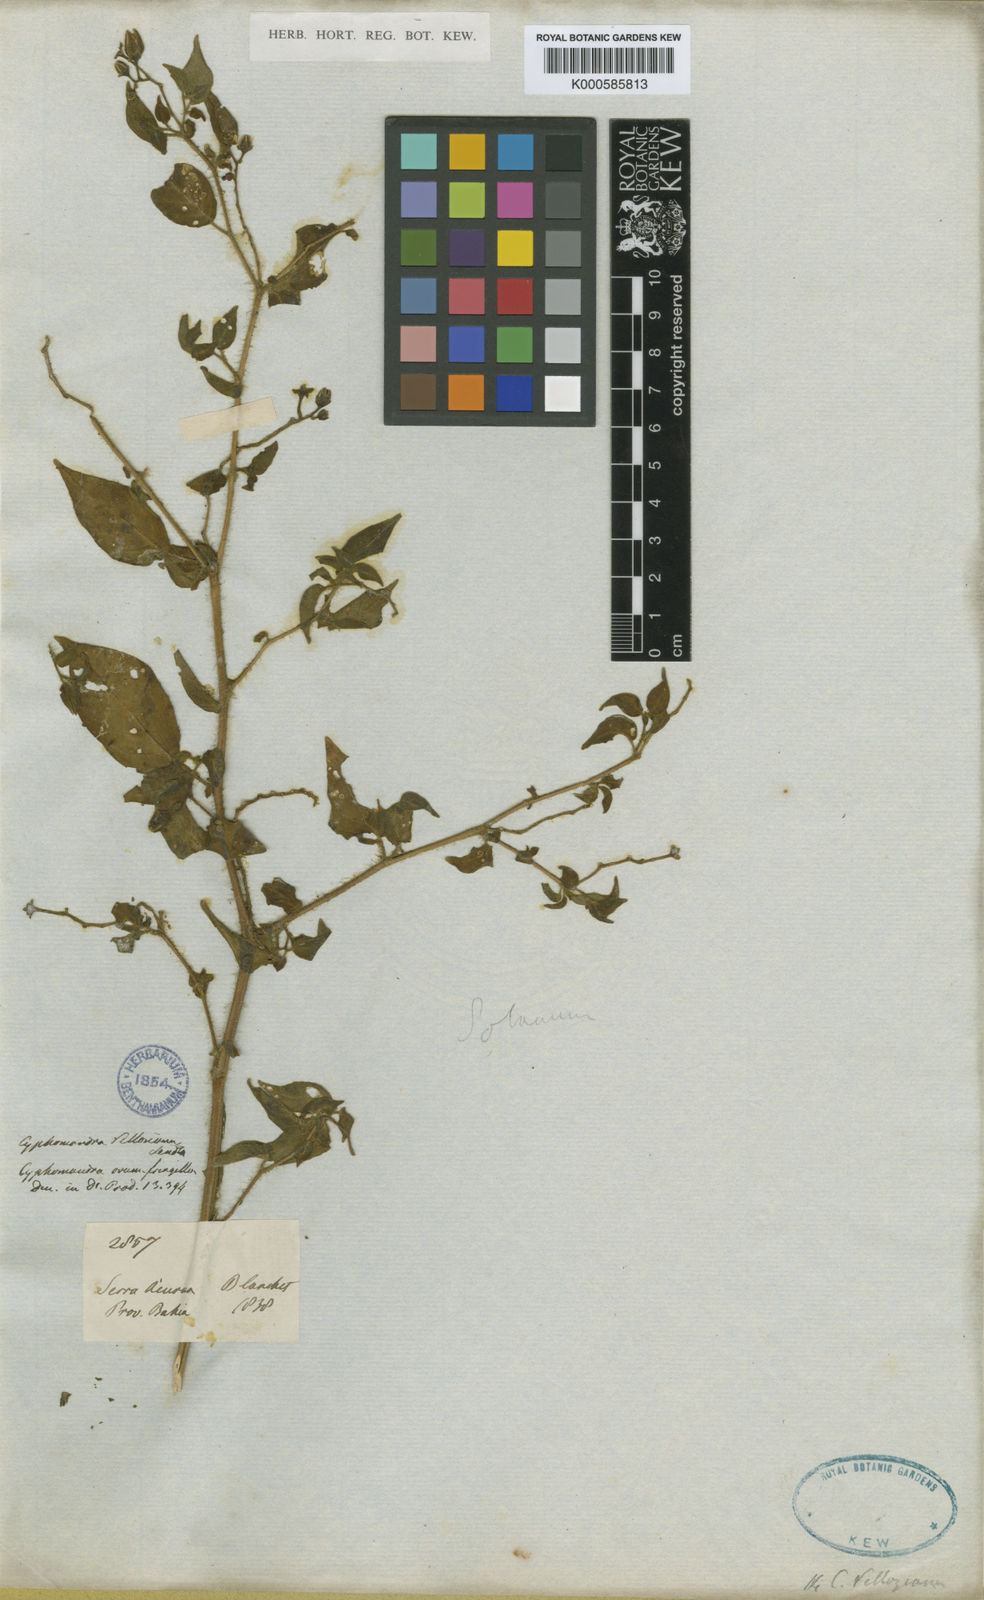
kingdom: Plantae
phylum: Tracheophyta
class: Magnoliopsida
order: Solanales
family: Solanaceae
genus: Solanum
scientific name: Solanum premnifolium
